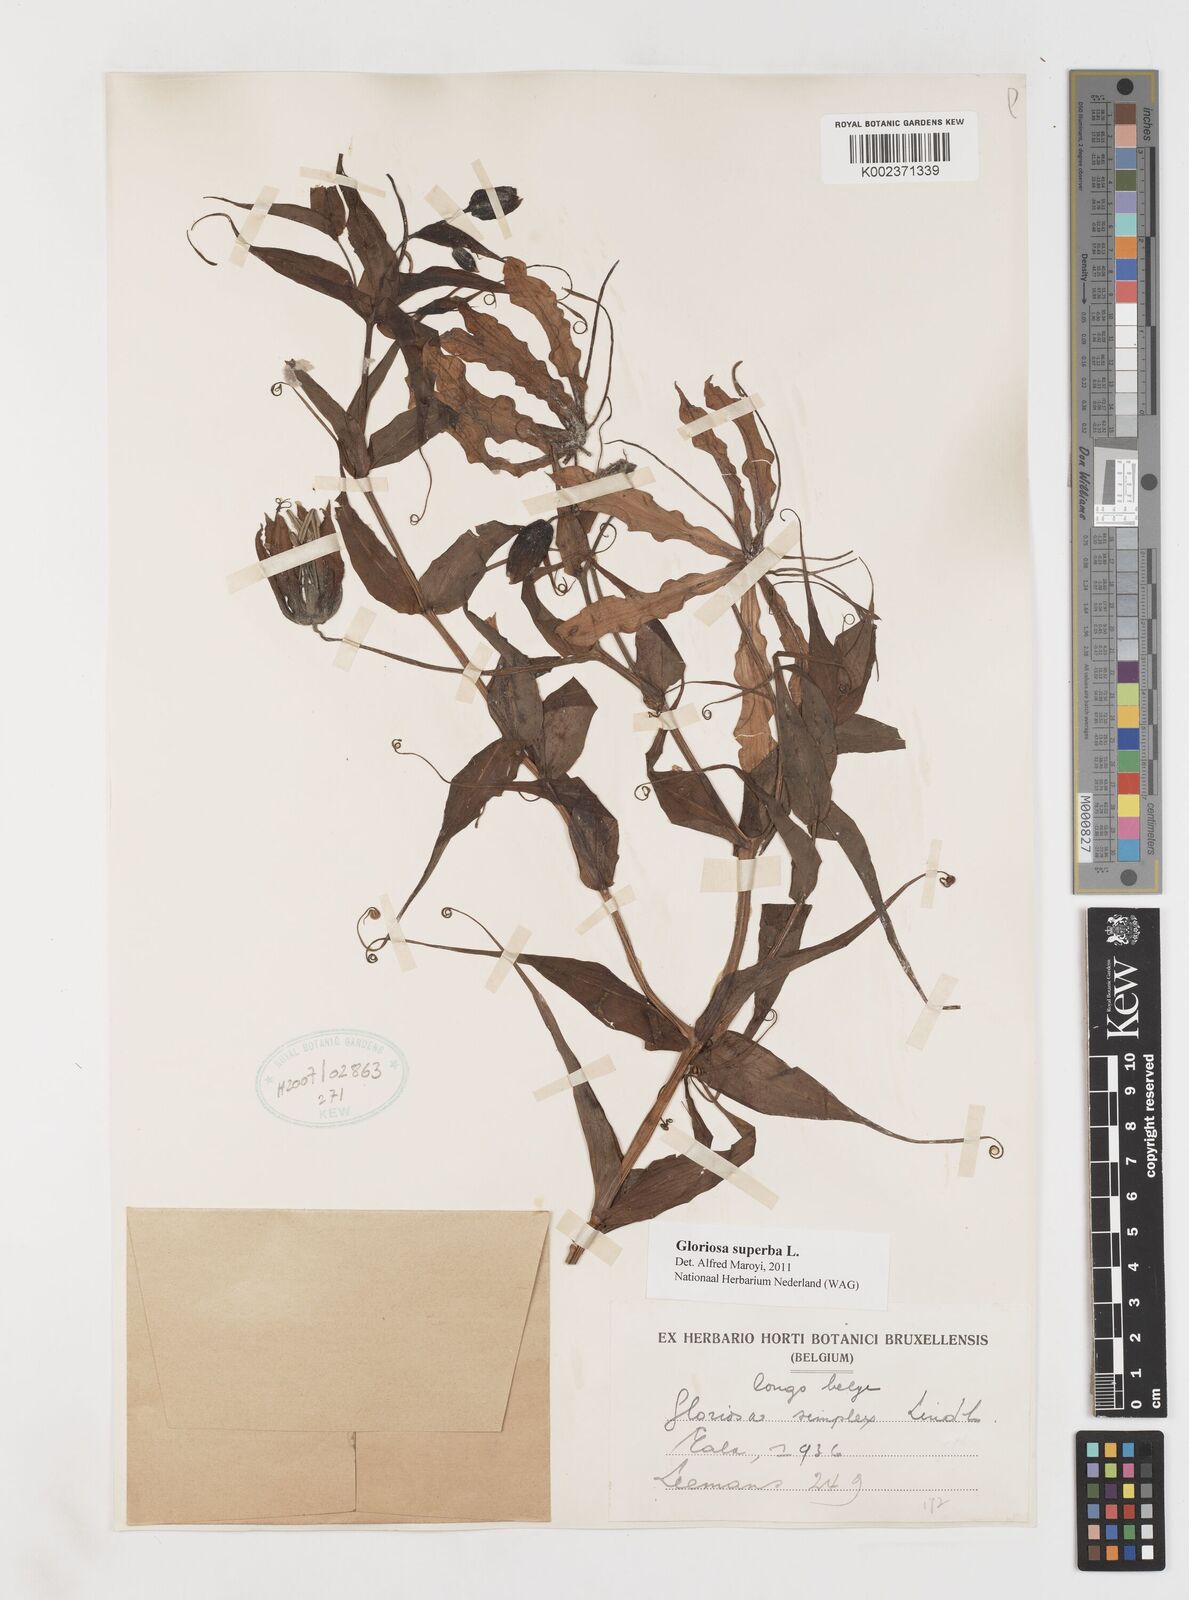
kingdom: Plantae
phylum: Tracheophyta
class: Liliopsida
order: Liliales
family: Colchicaceae
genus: Gloriosa
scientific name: Gloriosa superba
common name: Flame lily
